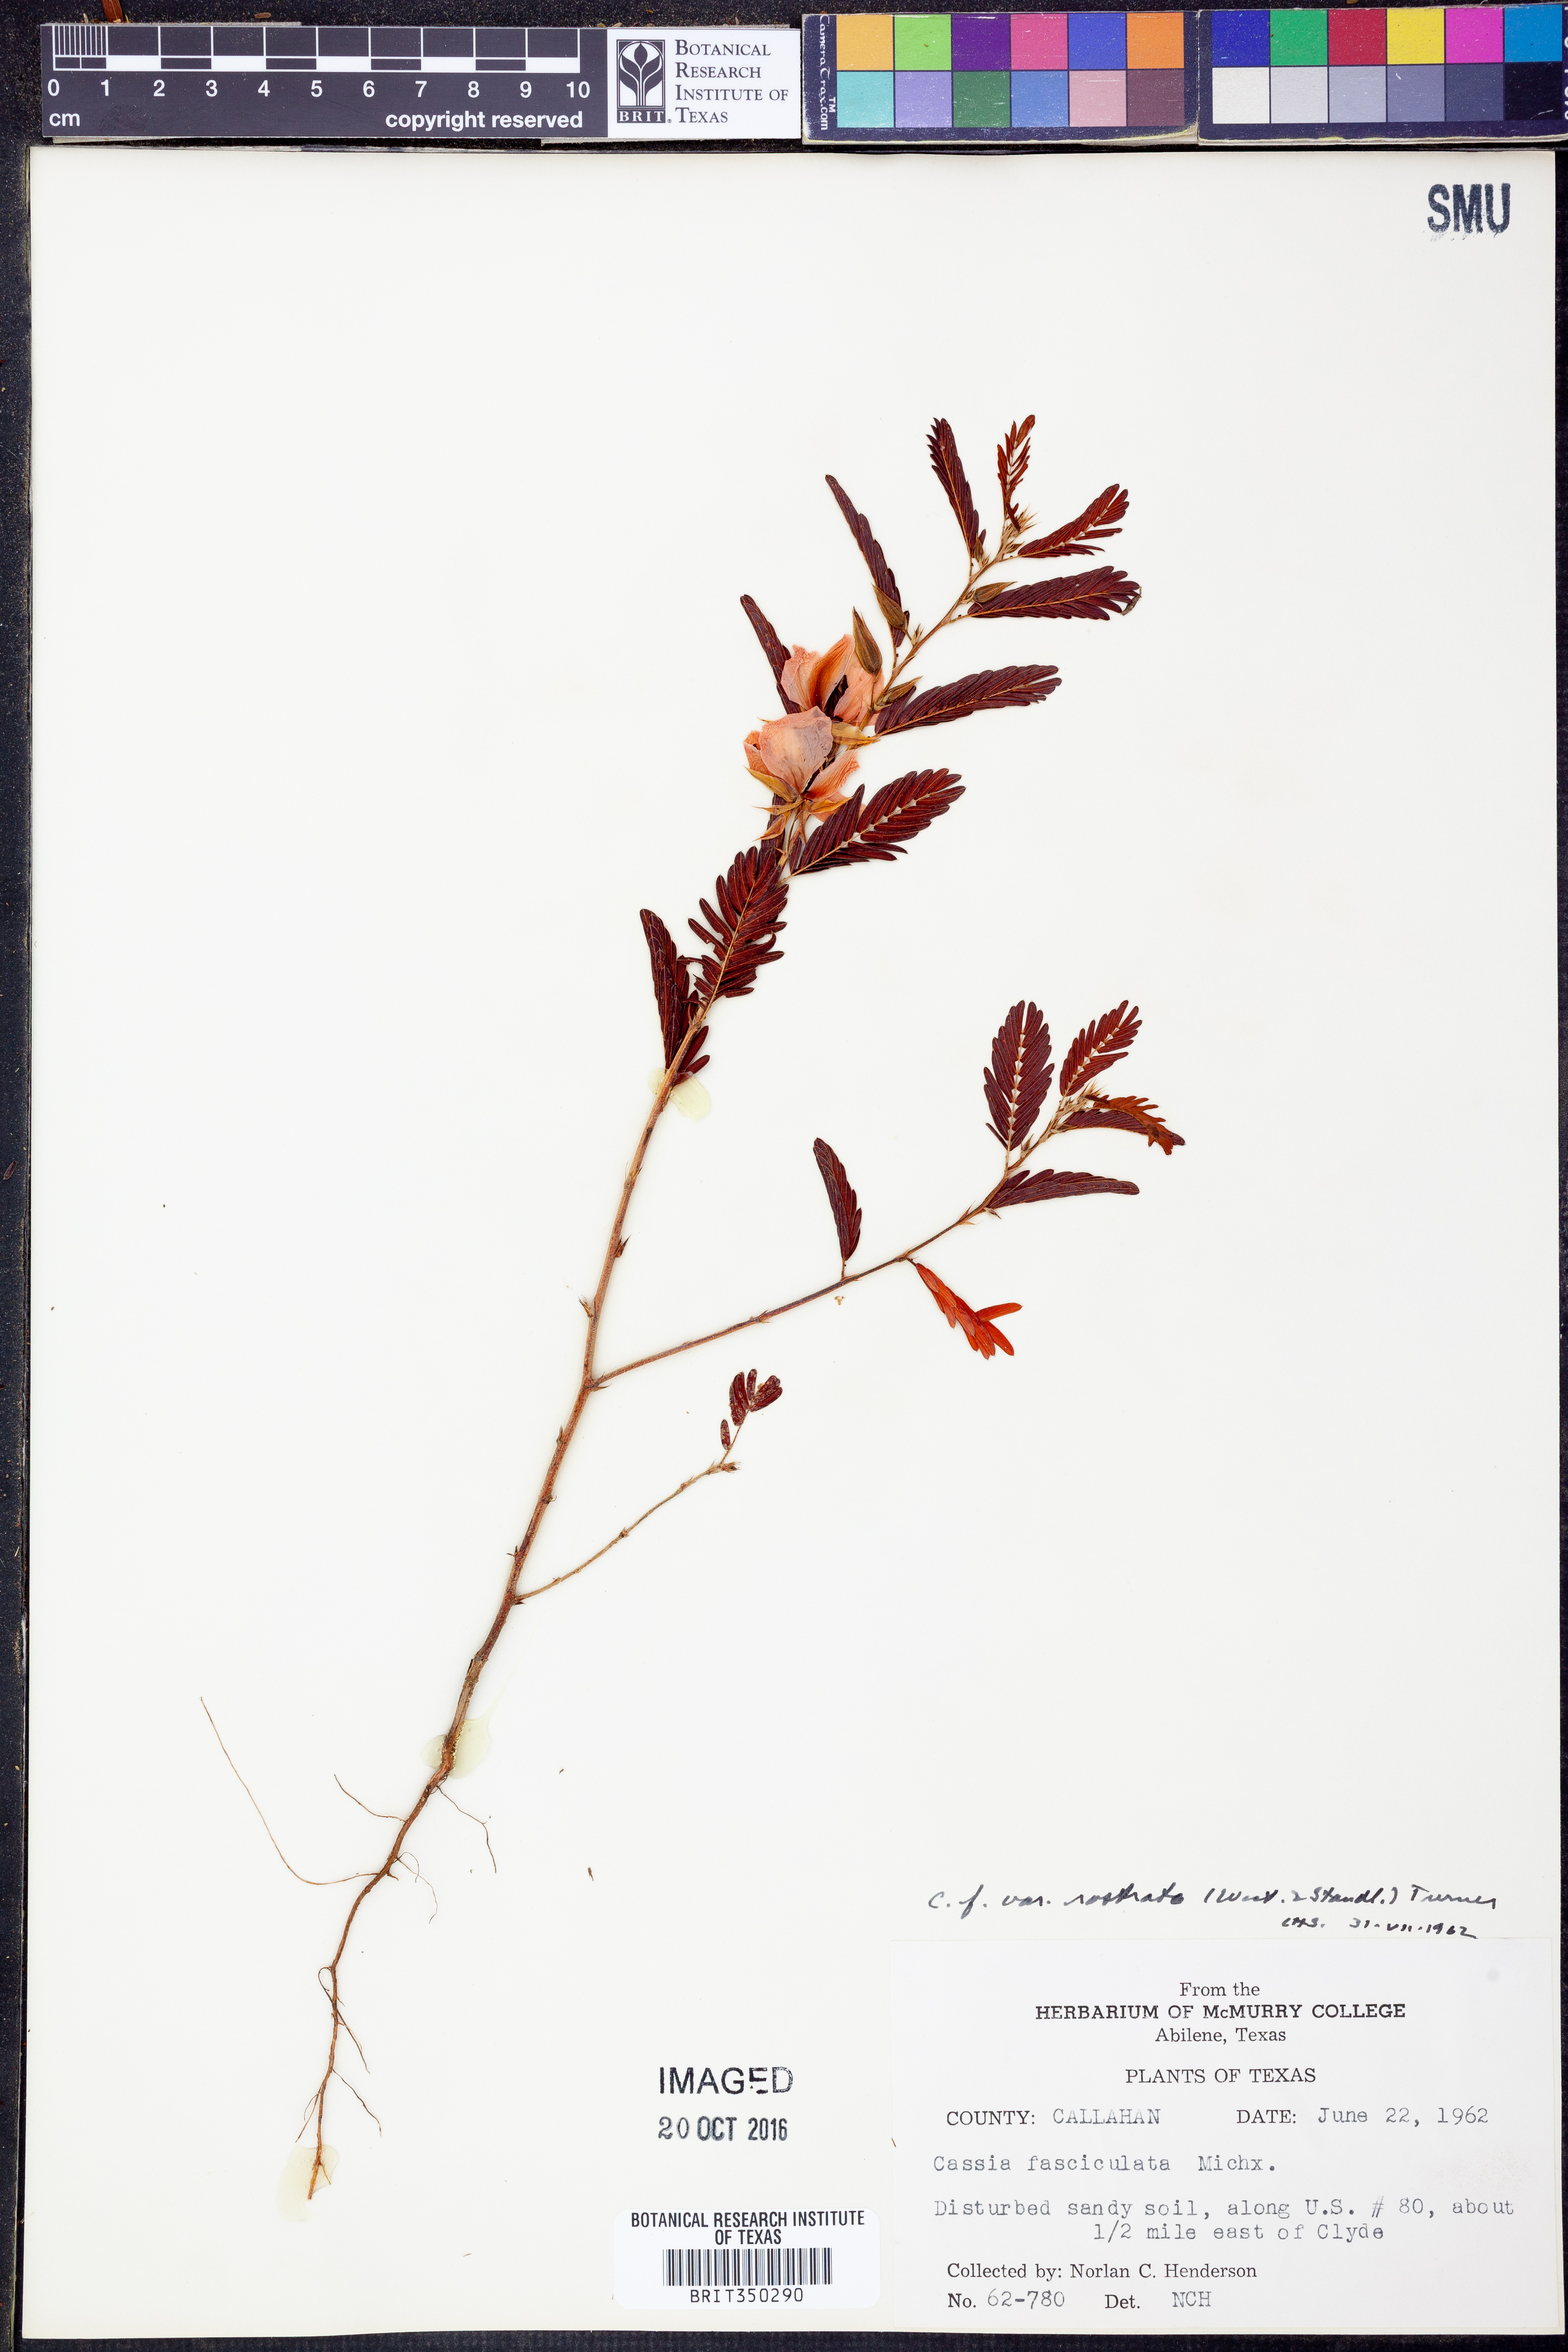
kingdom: Plantae
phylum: Tracheophyta
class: Magnoliopsida
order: Fabales
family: Fabaceae
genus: Chamaecrista
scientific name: Chamaecrista fasciculata
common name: Golden cassia
